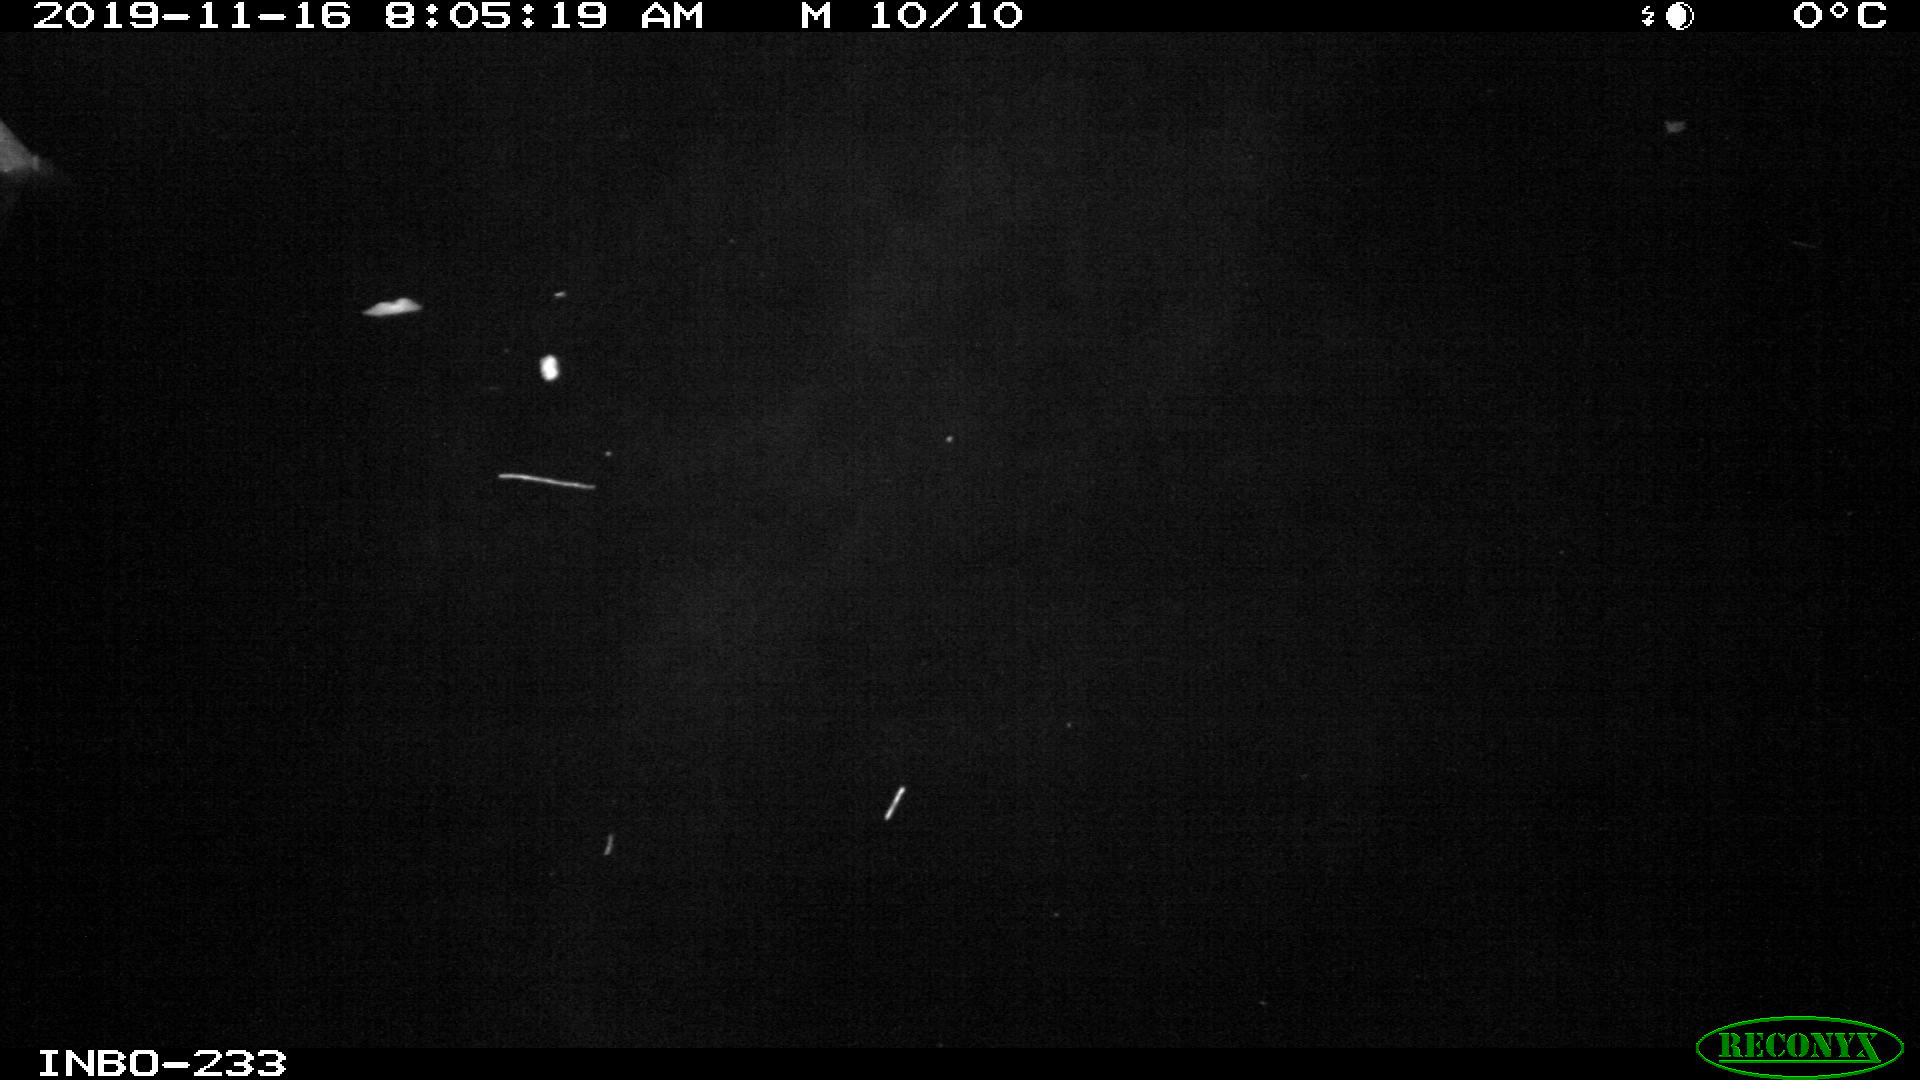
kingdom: Animalia
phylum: Chordata
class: Aves
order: Anseriformes
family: Anatidae
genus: Anas
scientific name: Anas platyrhynchos
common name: Mallard
